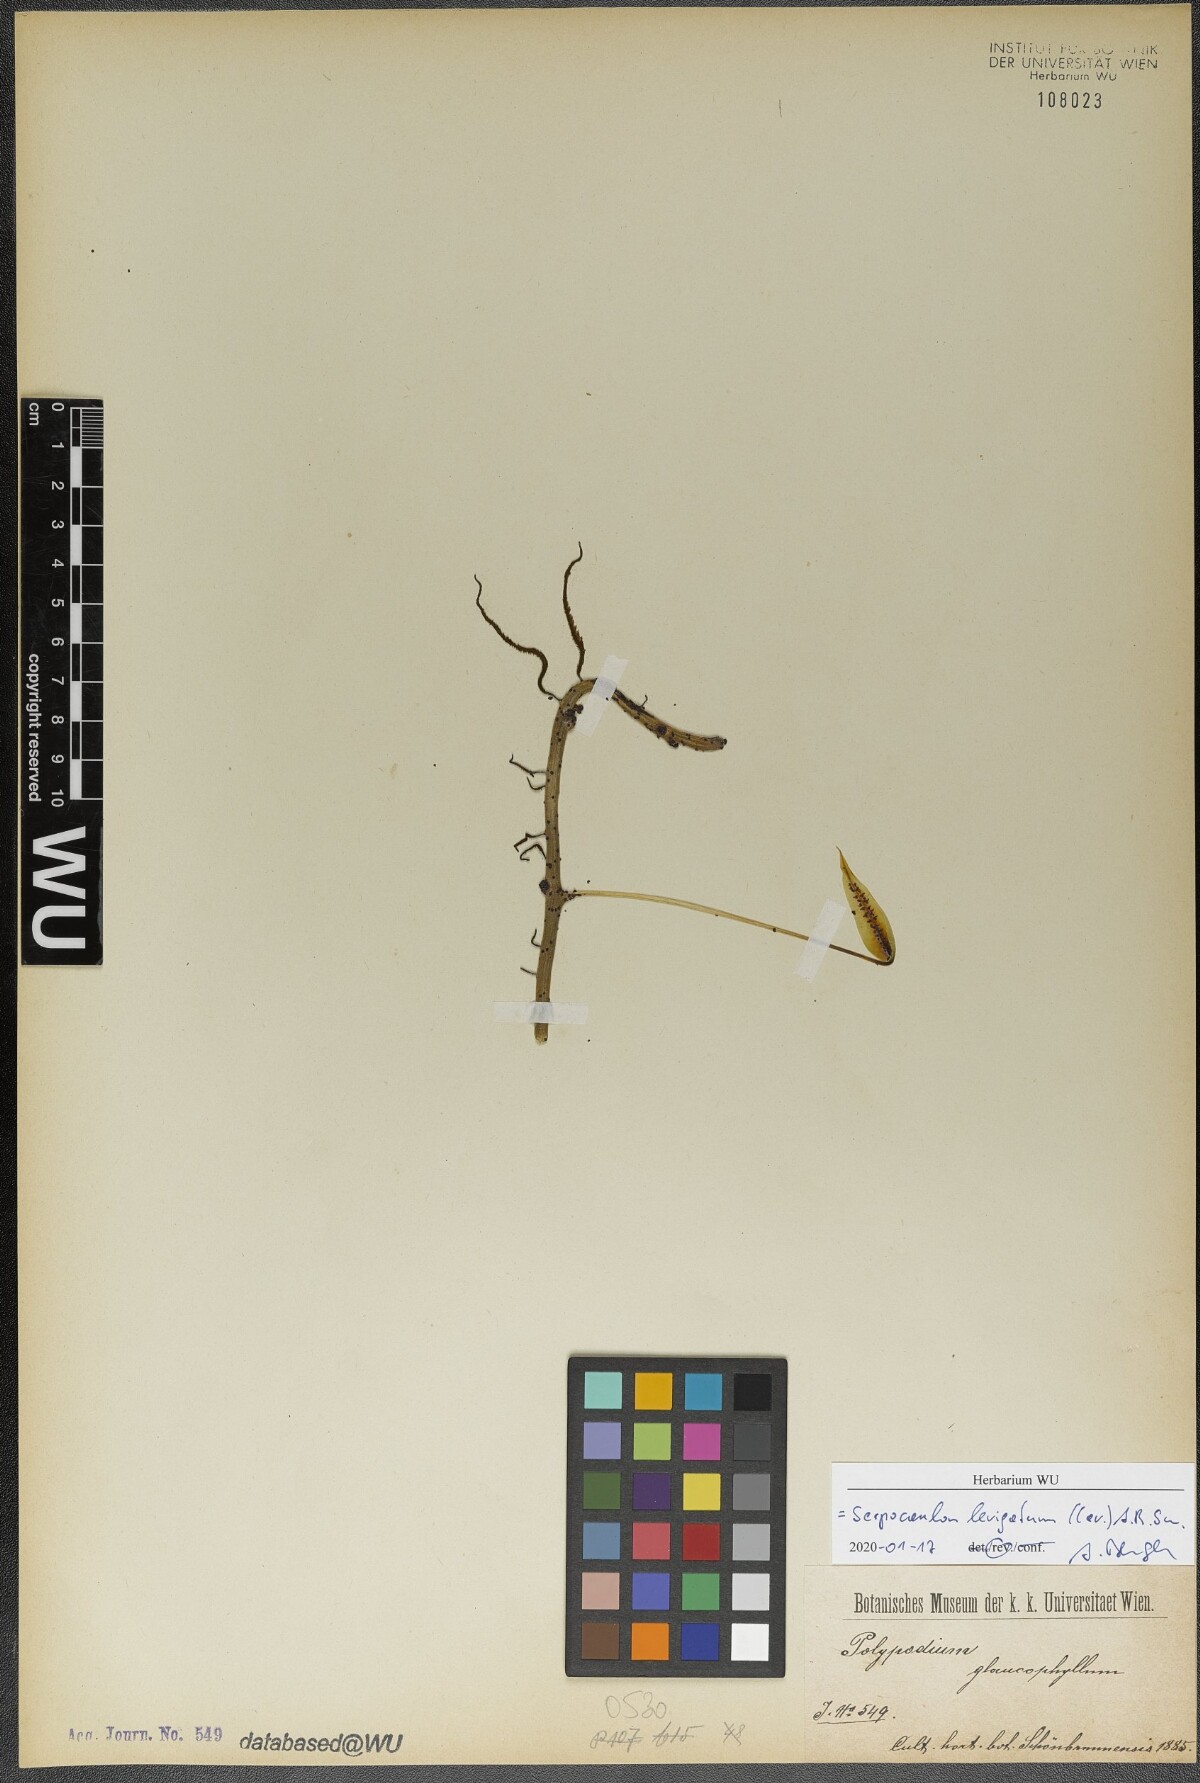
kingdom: Plantae
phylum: Tracheophyta
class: Polypodiopsida
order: Polypodiales
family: Polypodiaceae
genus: Serpocaulon
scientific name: Serpocaulon levigatum
